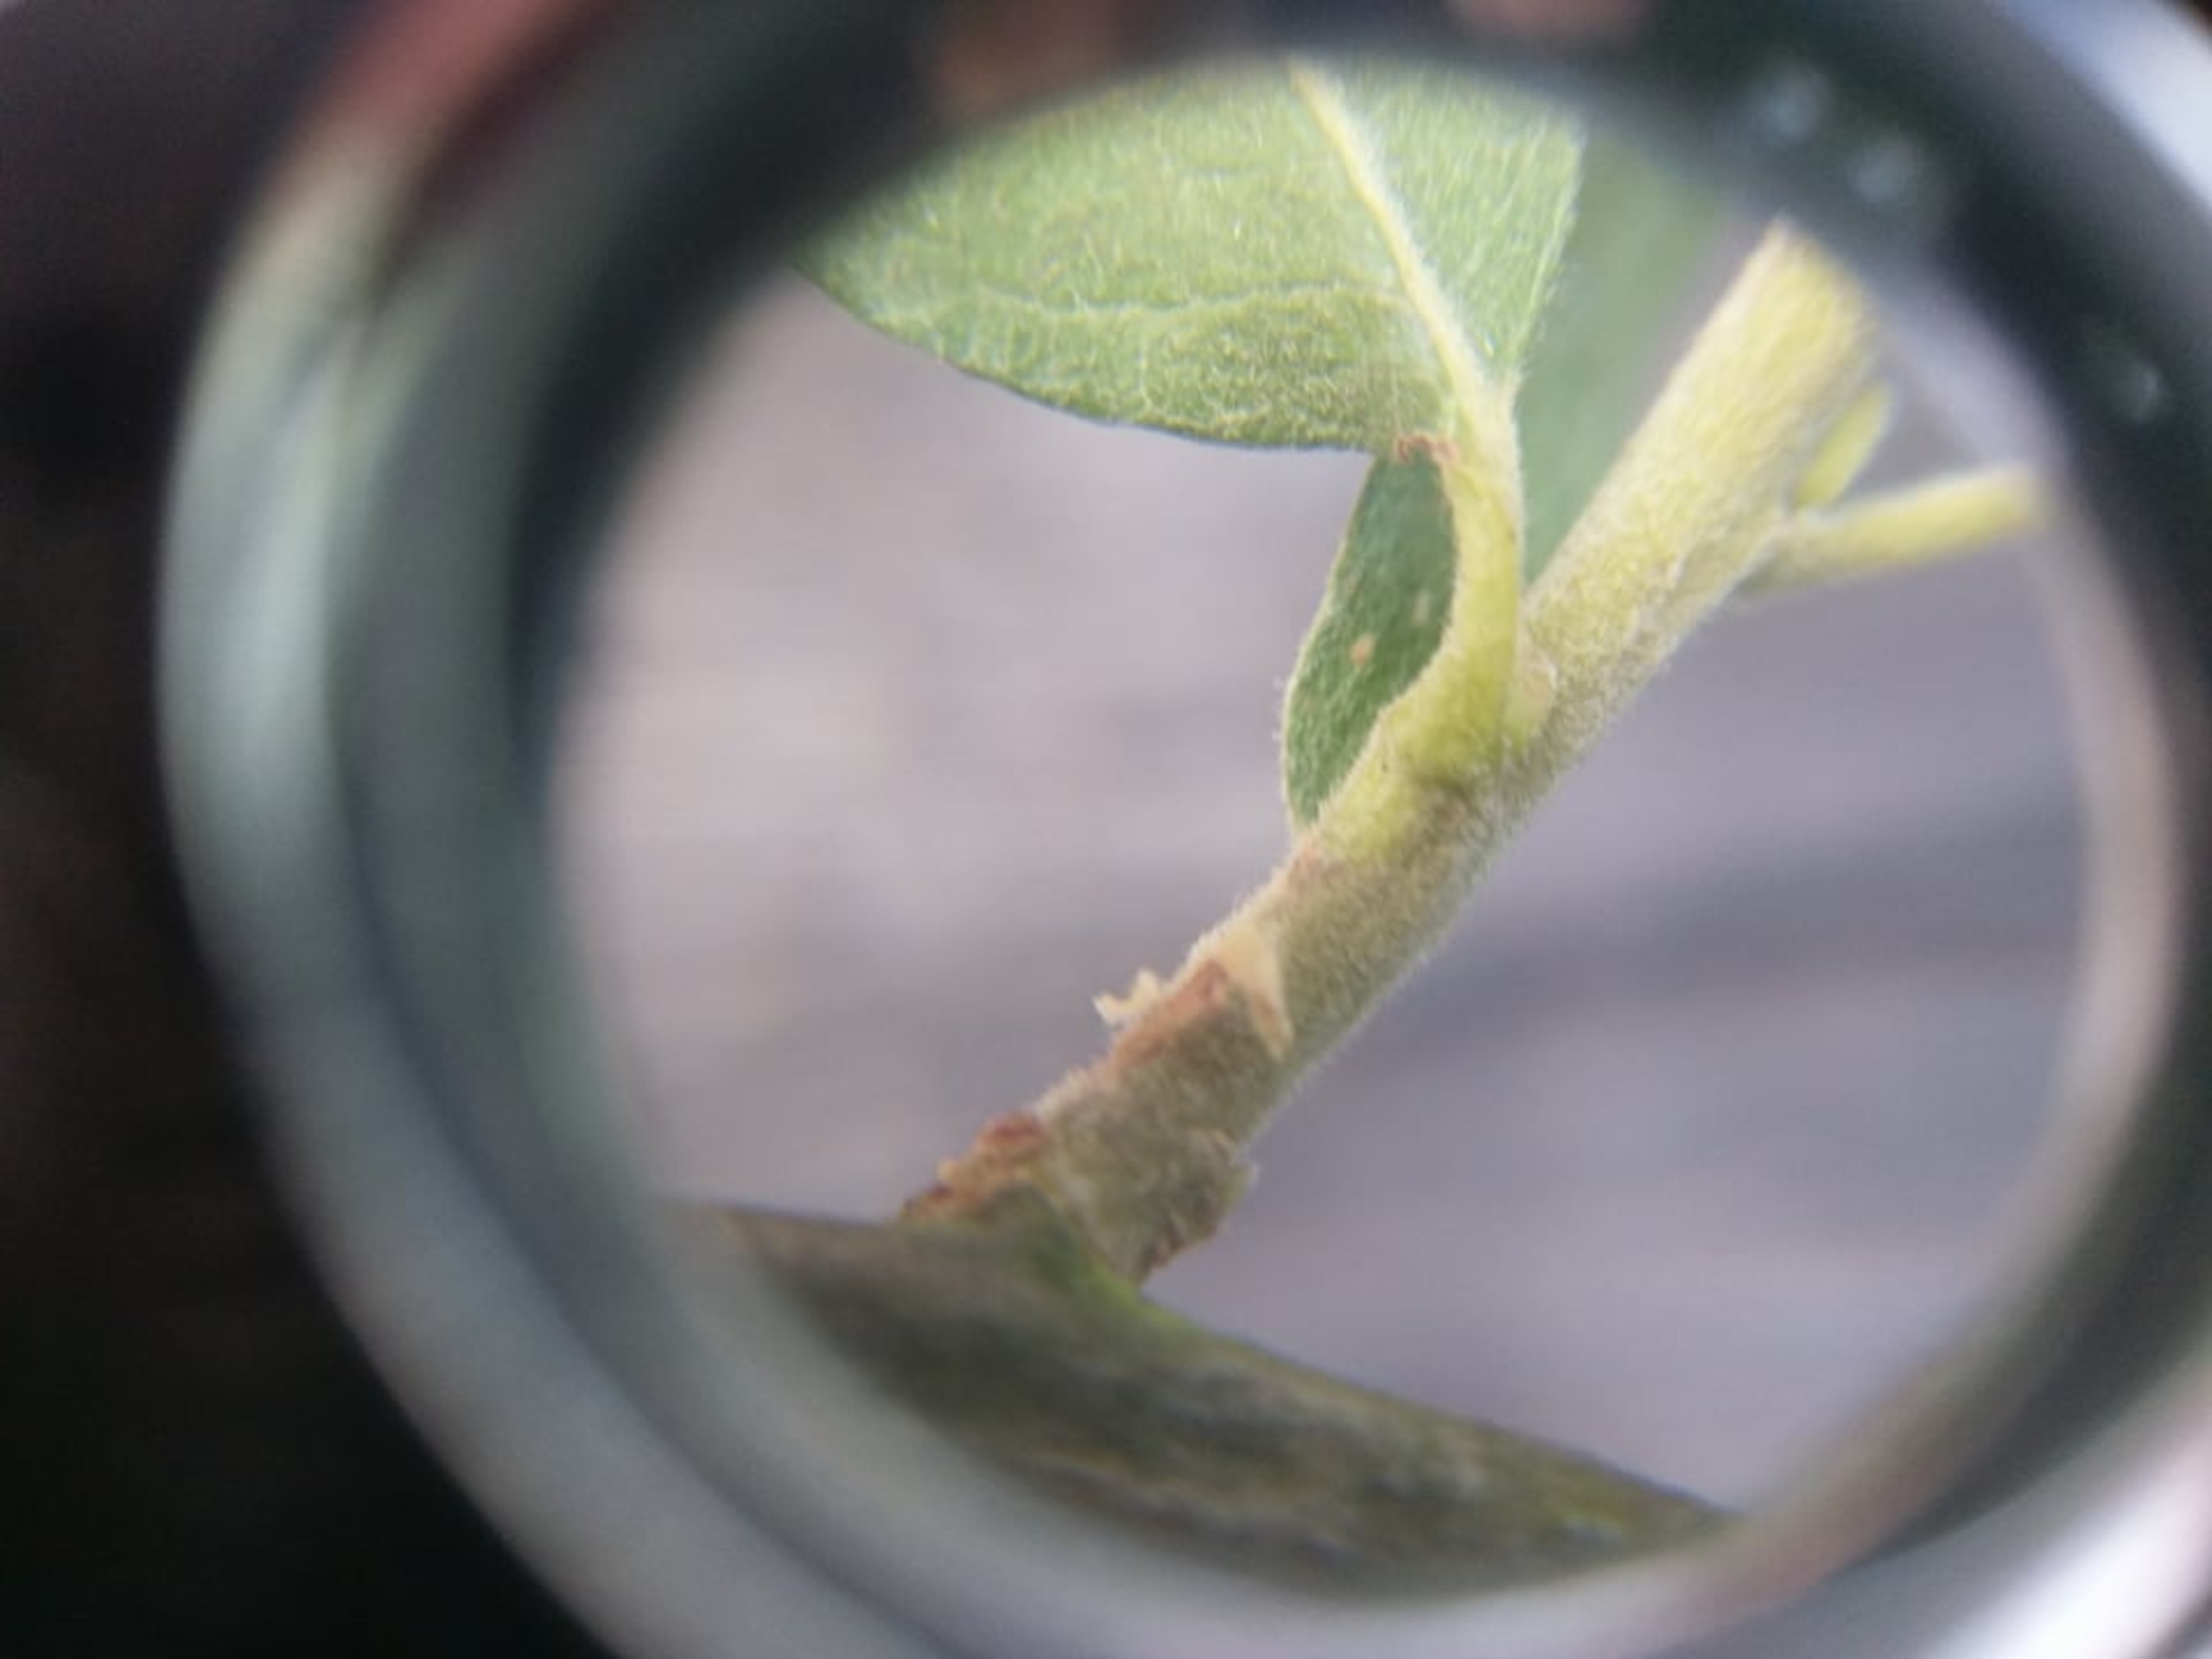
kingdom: Plantae
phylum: Tracheophyta
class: Magnoliopsida
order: Malpighiales
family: Salicaceae
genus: Salix
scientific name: Salix cinerea
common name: Grå-pil
